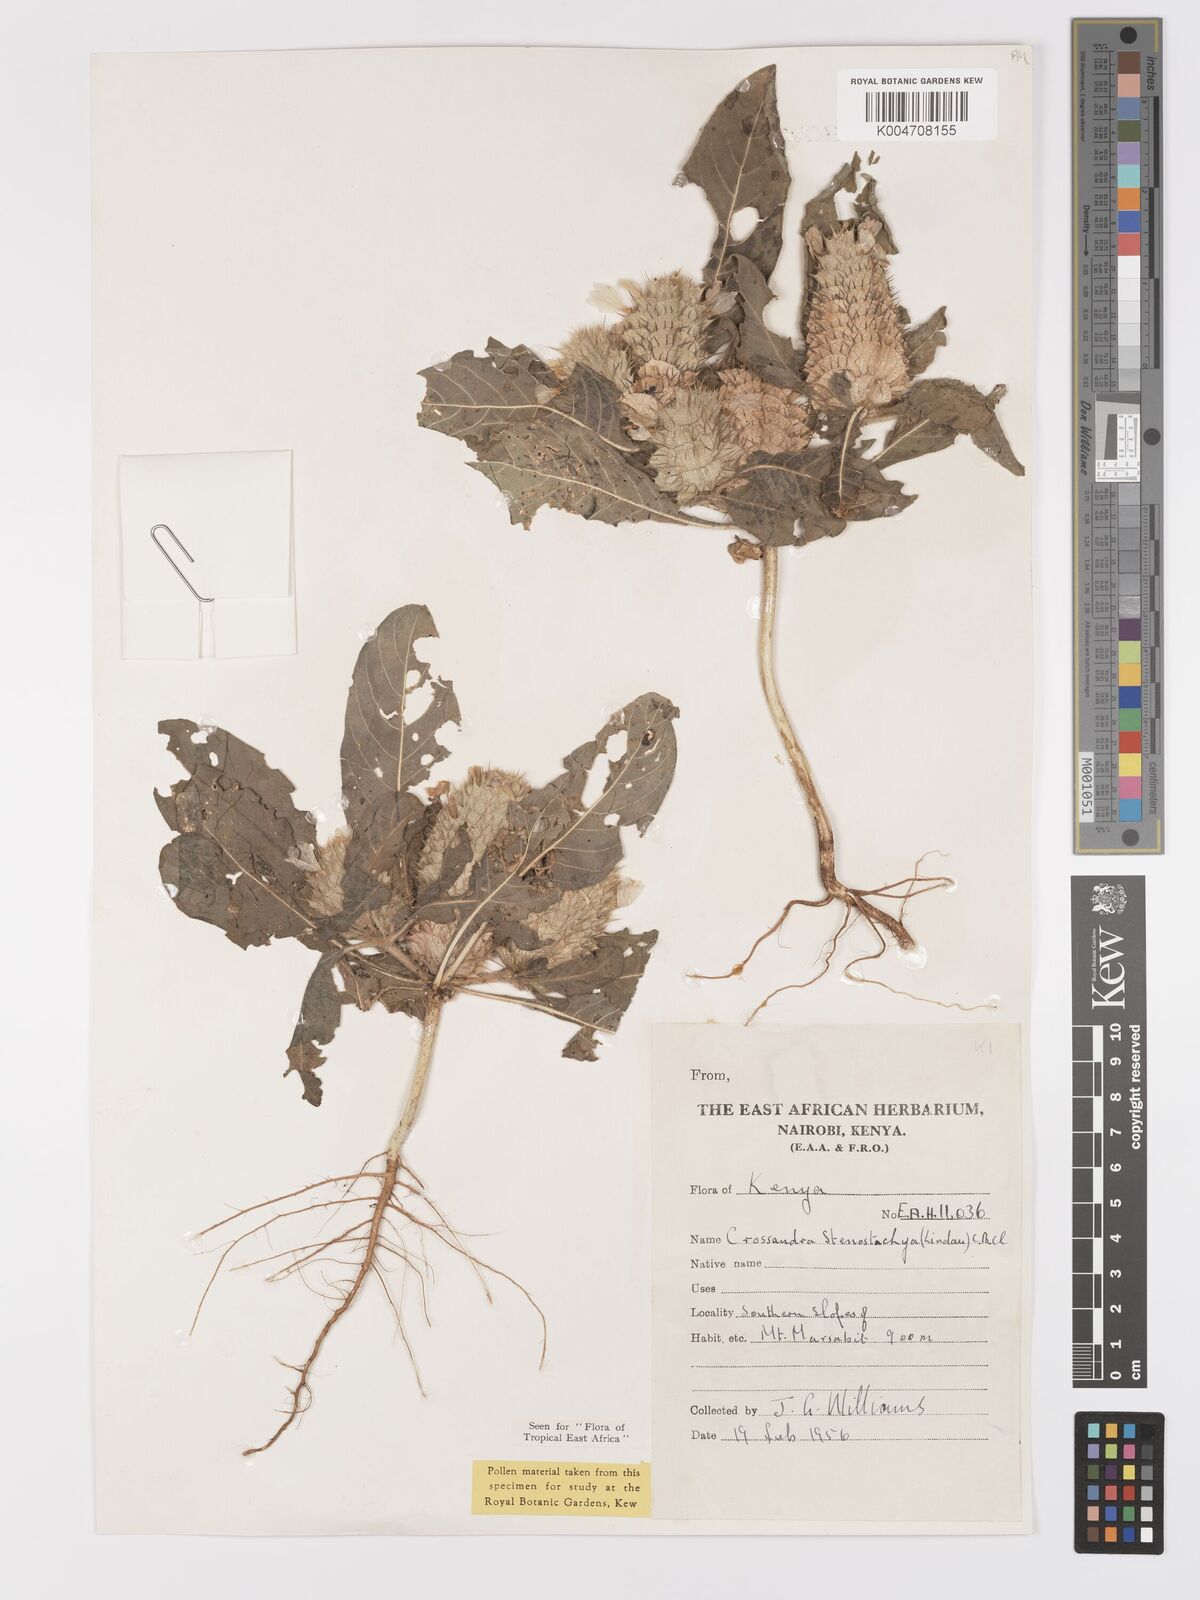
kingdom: Plantae
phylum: Tracheophyta
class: Magnoliopsida
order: Lamiales
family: Acanthaceae
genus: Crossandra
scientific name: Crossandra stenostachya
